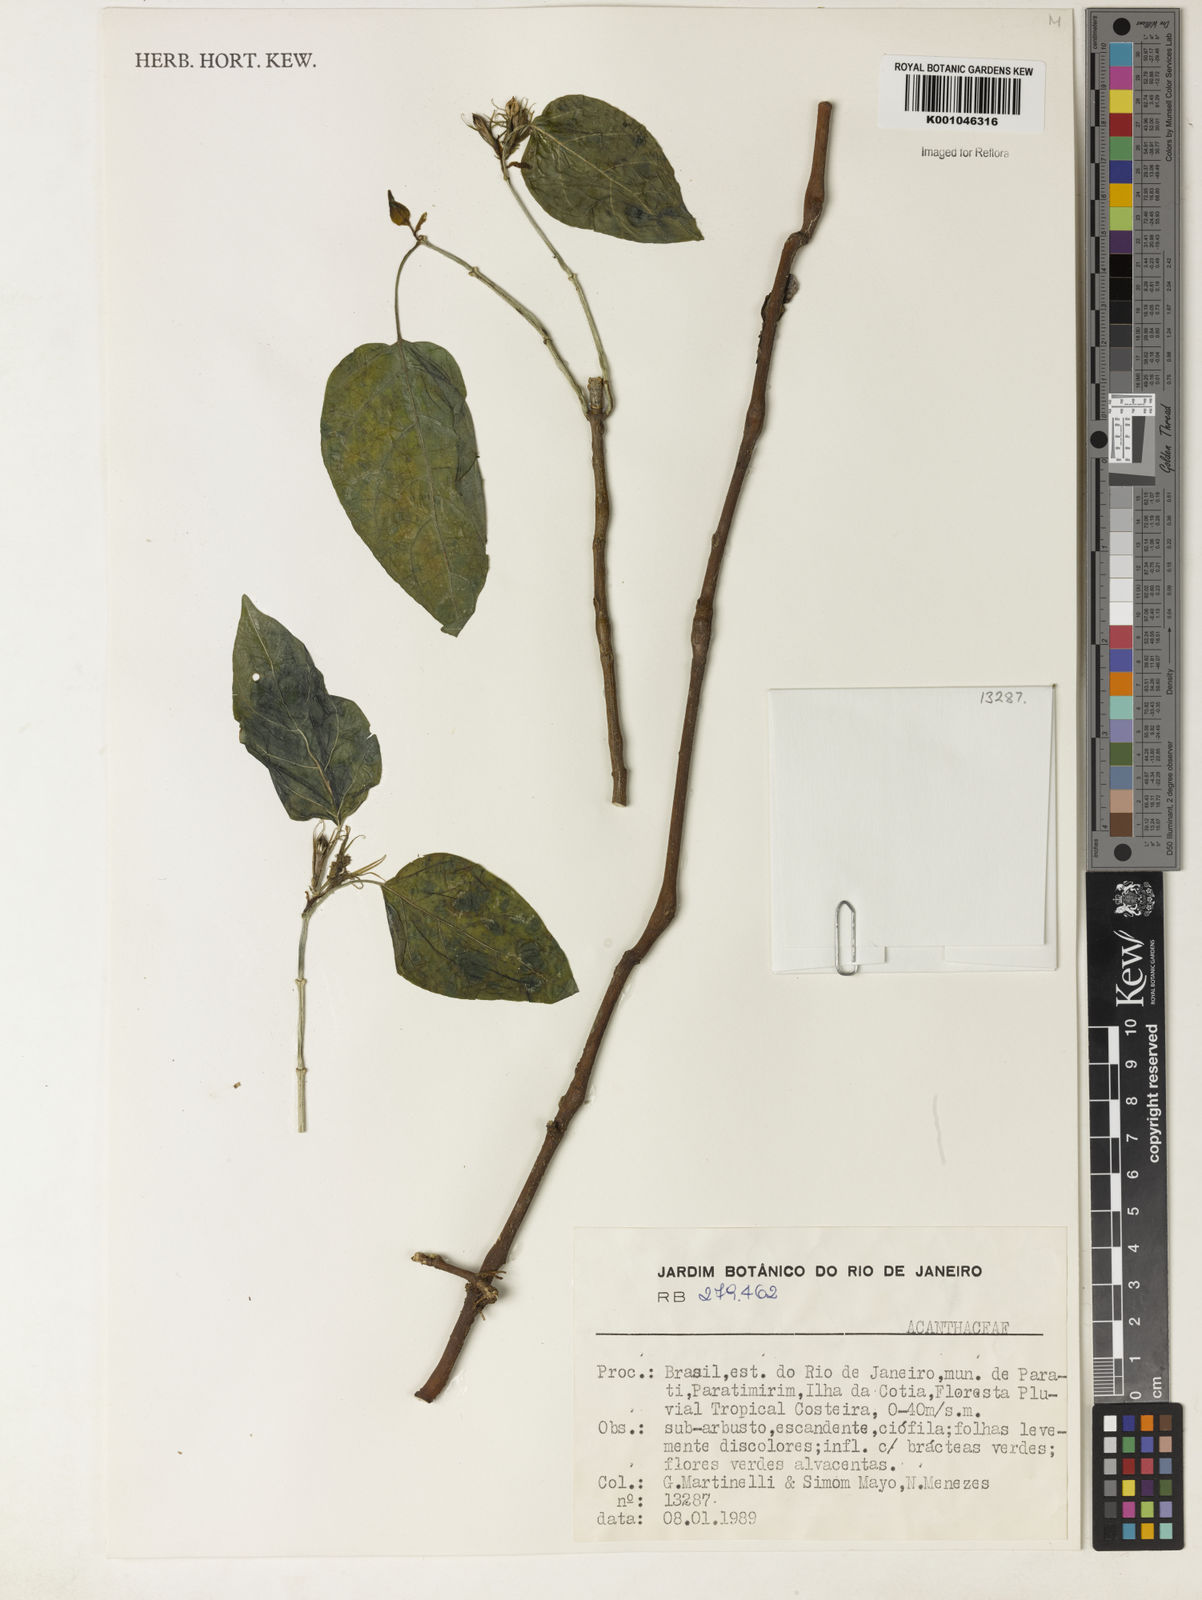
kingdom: Plantae
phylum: Tracheophyta
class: Magnoliopsida
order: Lamiales
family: Acanthaceae
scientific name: Acanthaceae
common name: Acanthaceae
